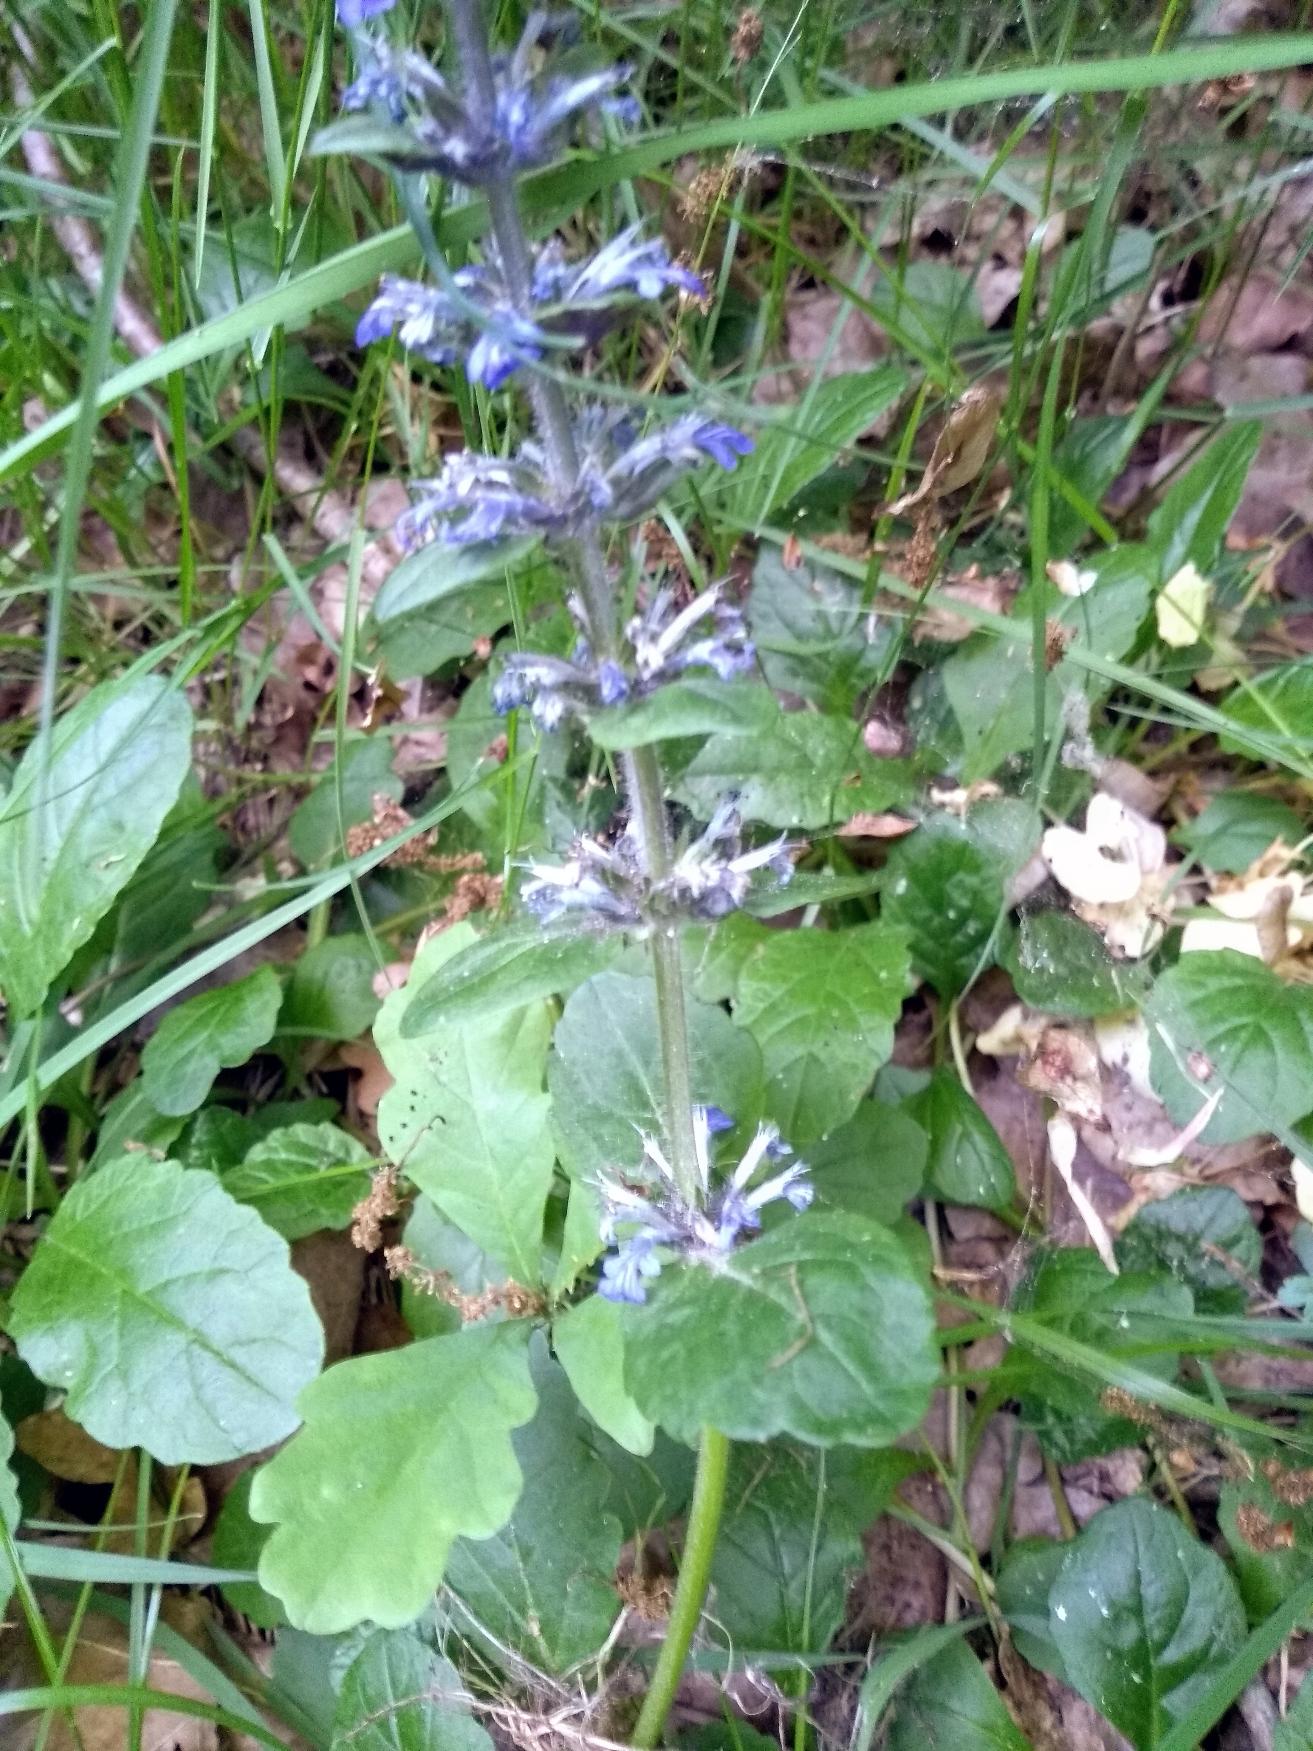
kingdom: Plantae
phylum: Tracheophyta
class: Magnoliopsida
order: Lamiales
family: Lamiaceae
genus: Ajuga
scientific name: Ajuga reptans
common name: Krybende læbeløs
